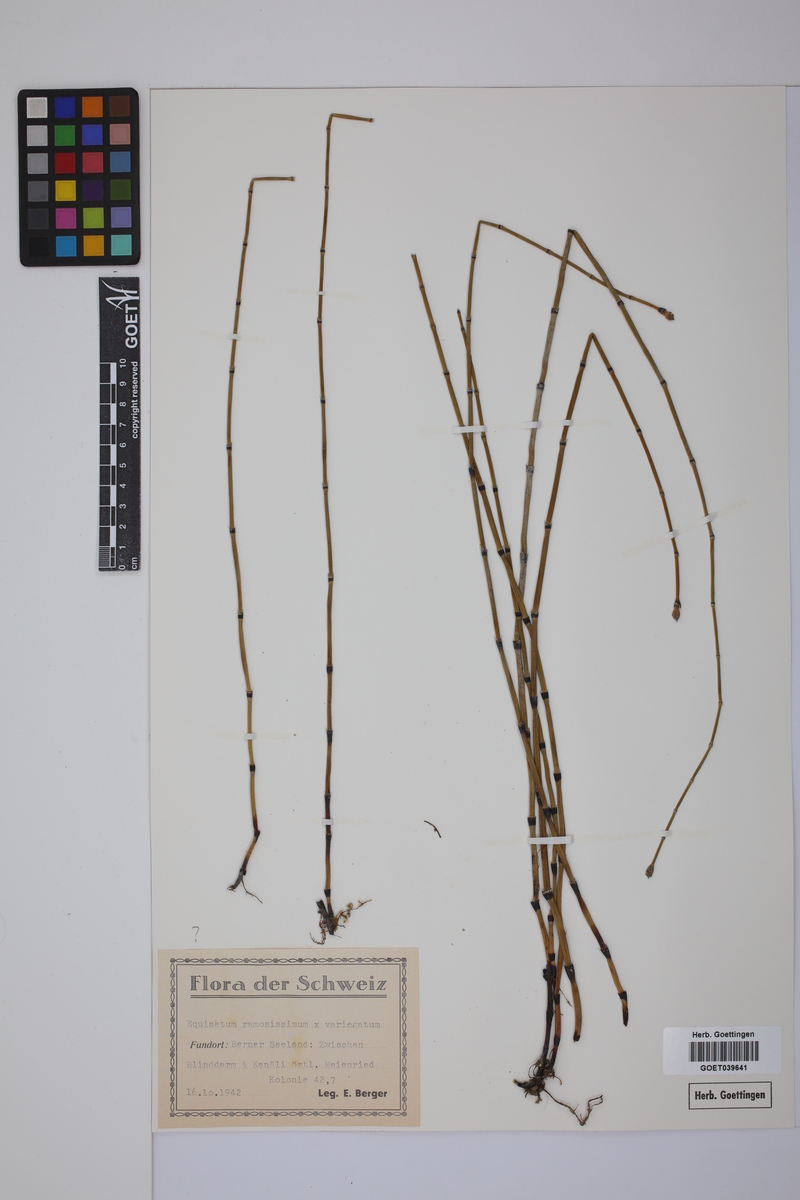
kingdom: Plantae
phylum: Tracheophyta
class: Polypodiopsida
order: Equisetales
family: Equisetaceae
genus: Equisetum
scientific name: Equisetum giganteum
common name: Giant horsetail
